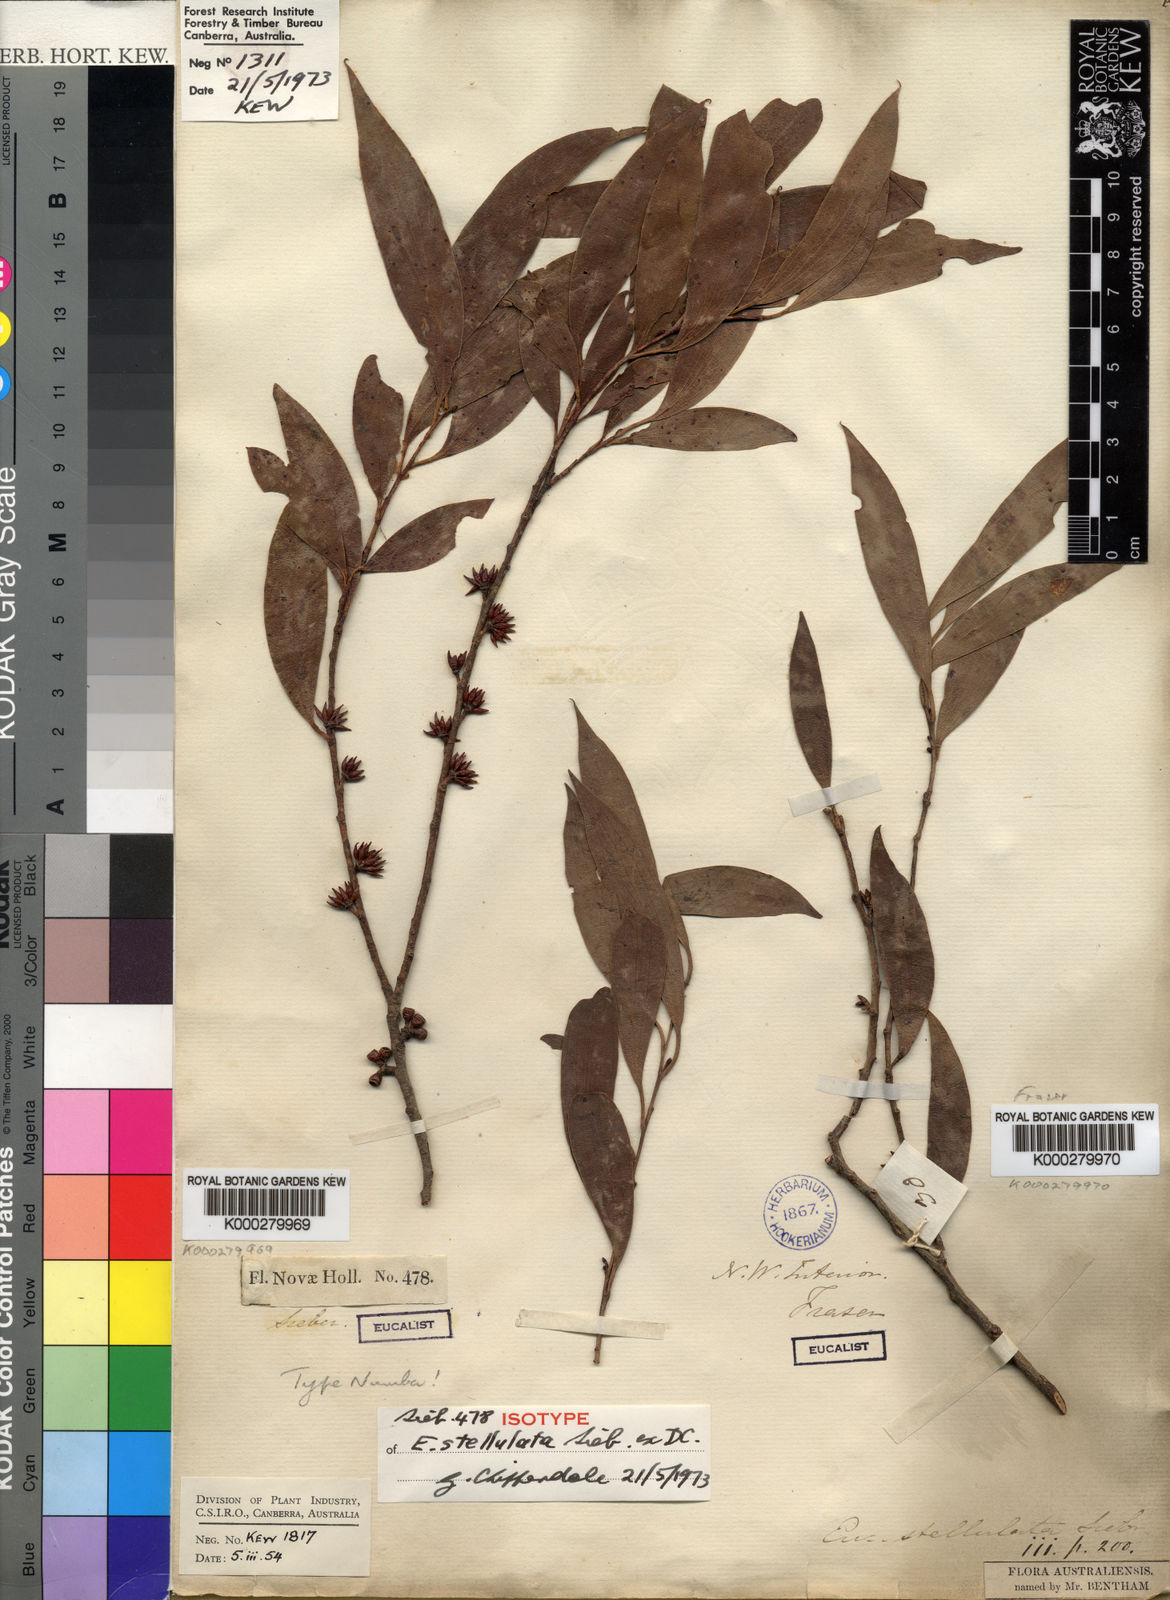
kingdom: Plantae
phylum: Tracheophyta
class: Magnoliopsida
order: Myrtales
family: Myrtaceae
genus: Eucalyptus
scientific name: Eucalyptus stellulata
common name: Black sallee
